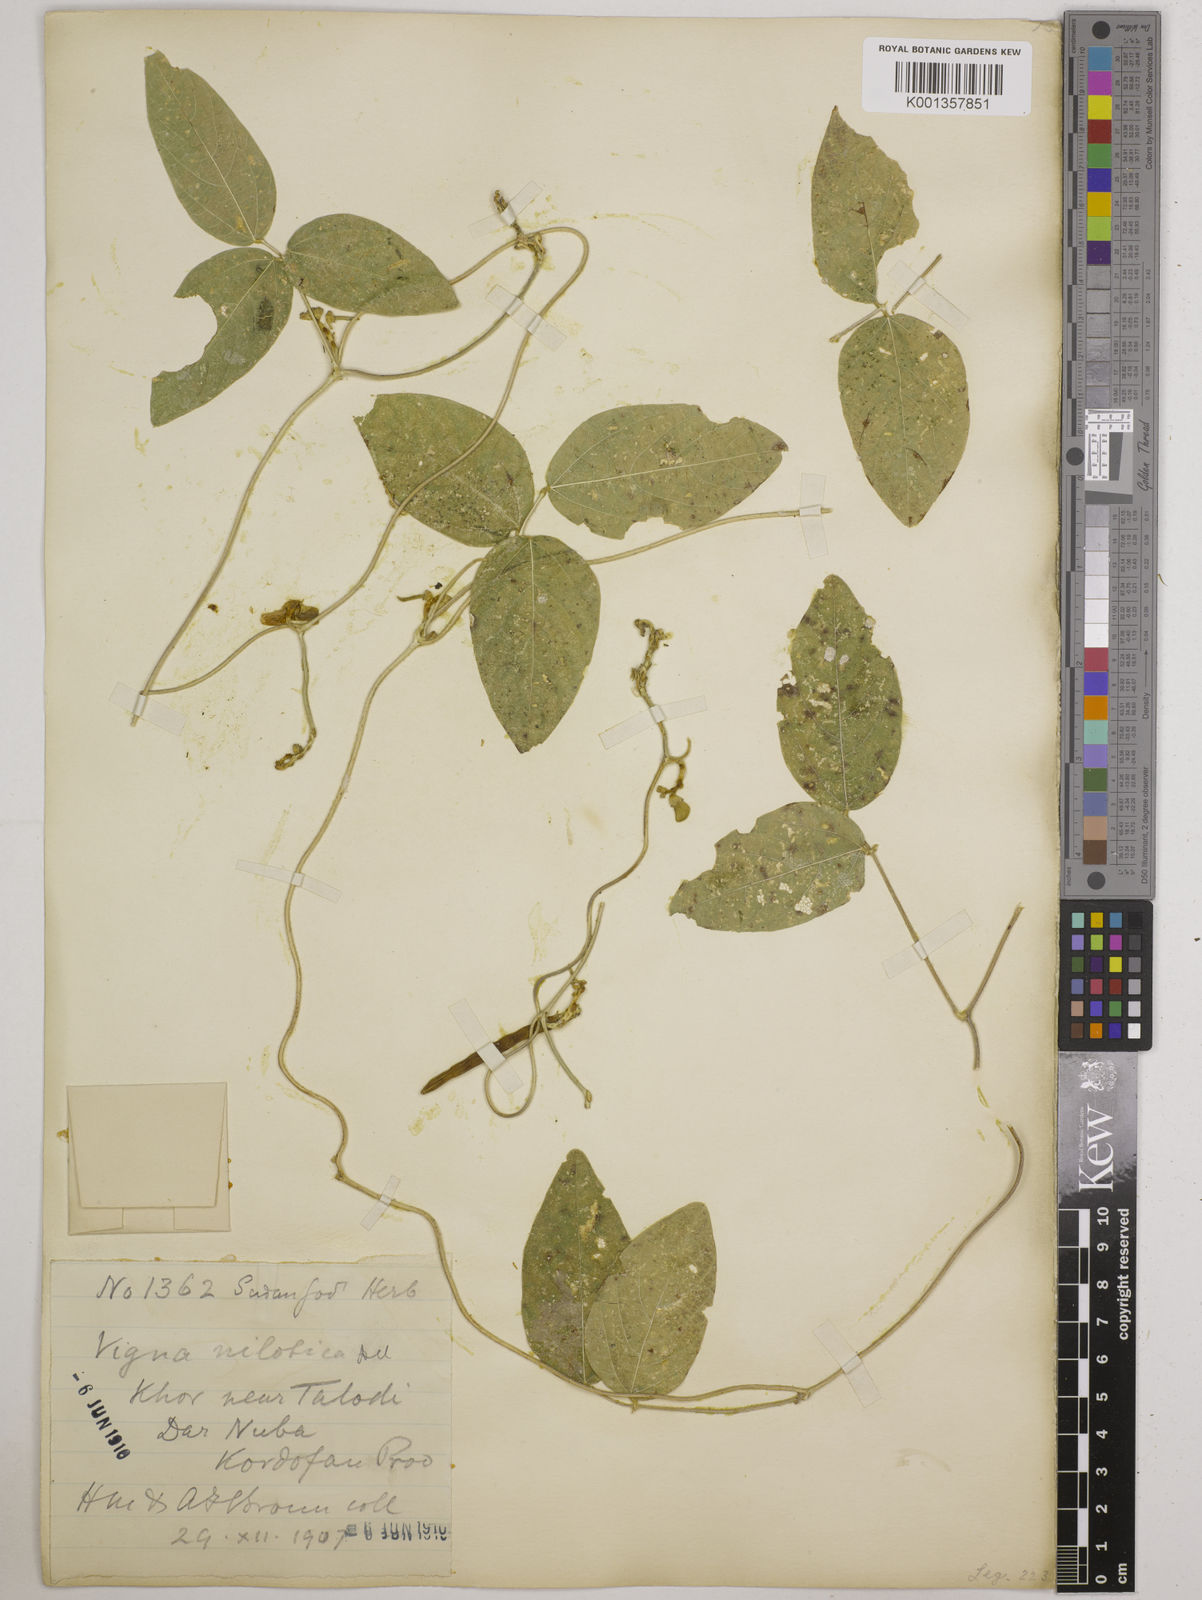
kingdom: Plantae
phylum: Tracheophyta
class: Magnoliopsida
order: Fabales
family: Fabaceae
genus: Vigna
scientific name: Vigna ambacensis
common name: Tsarkiyan zomo
